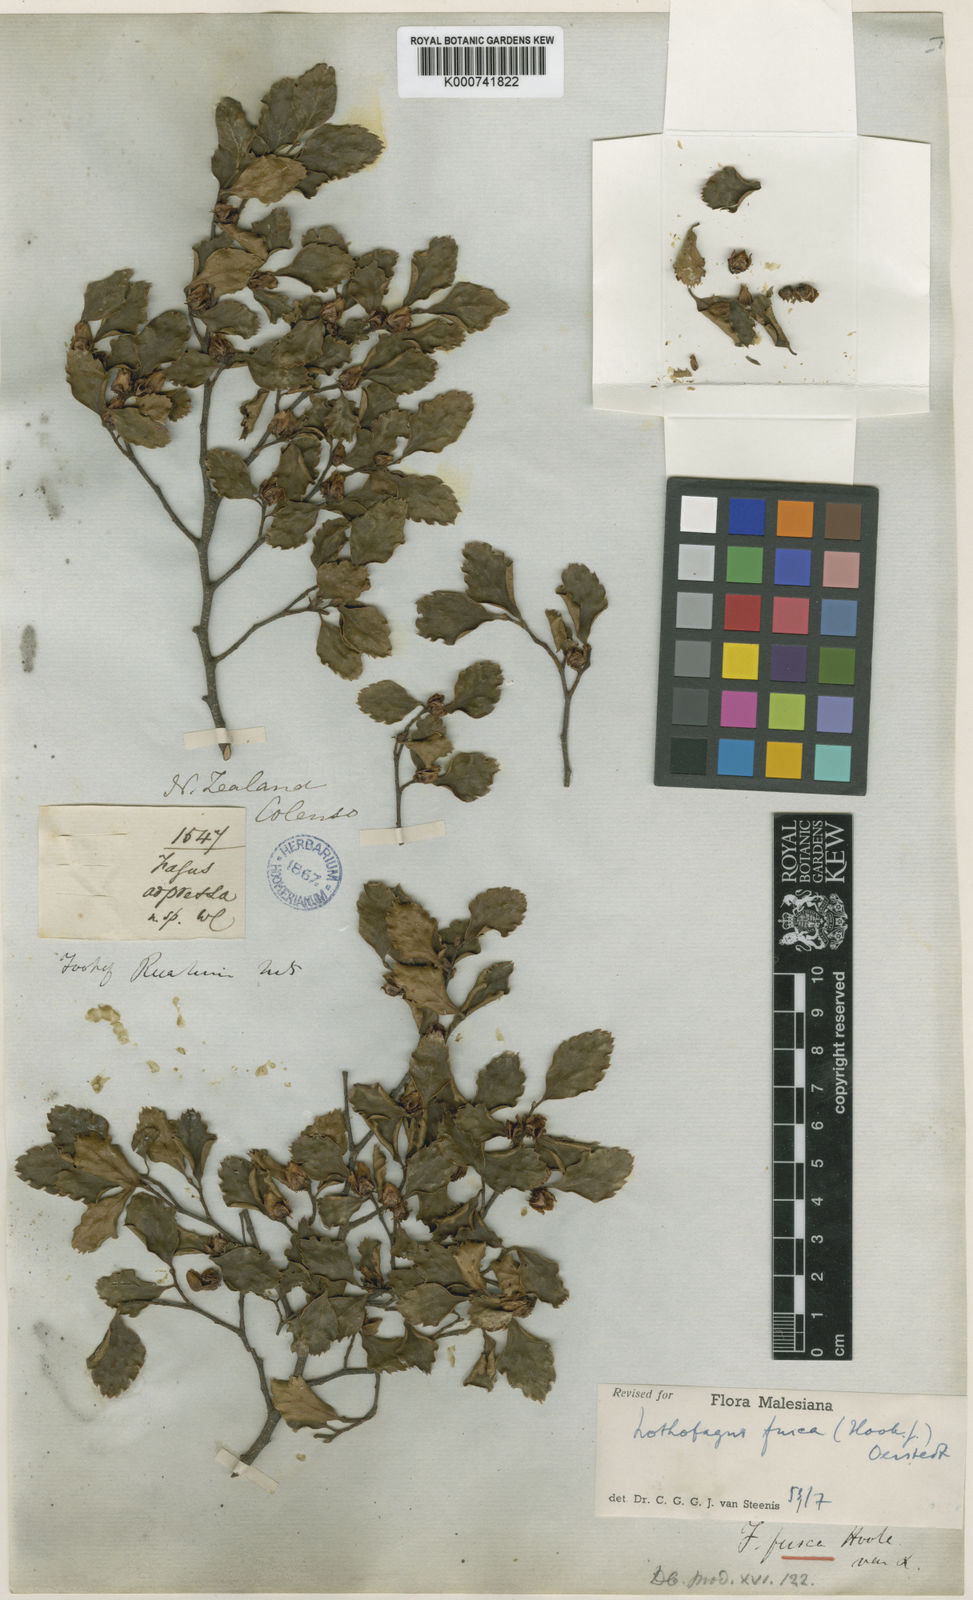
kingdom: Plantae
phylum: Tracheophyta
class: Magnoliopsida
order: Fagales
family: Nothofagaceae
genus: Nothofagus
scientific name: Nothofagus fusca
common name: Red beech
